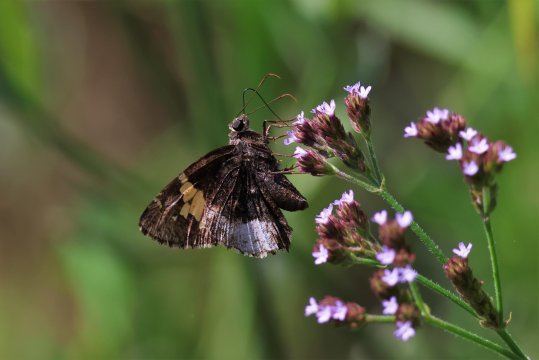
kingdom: Animalia
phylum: Arthropoda
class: Insecta
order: Lepidoptera
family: Hesperiidae
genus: Achalarus
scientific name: Achalarus lyciades
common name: Hoary Edge
